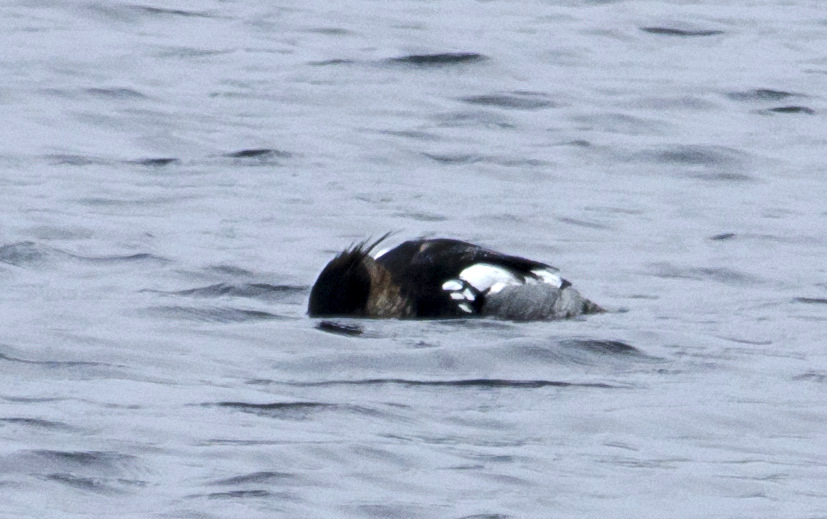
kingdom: Animalia
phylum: Chordata
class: Aves
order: Anseriformes
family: Anatidae
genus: Mergus
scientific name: Mergus serrator
